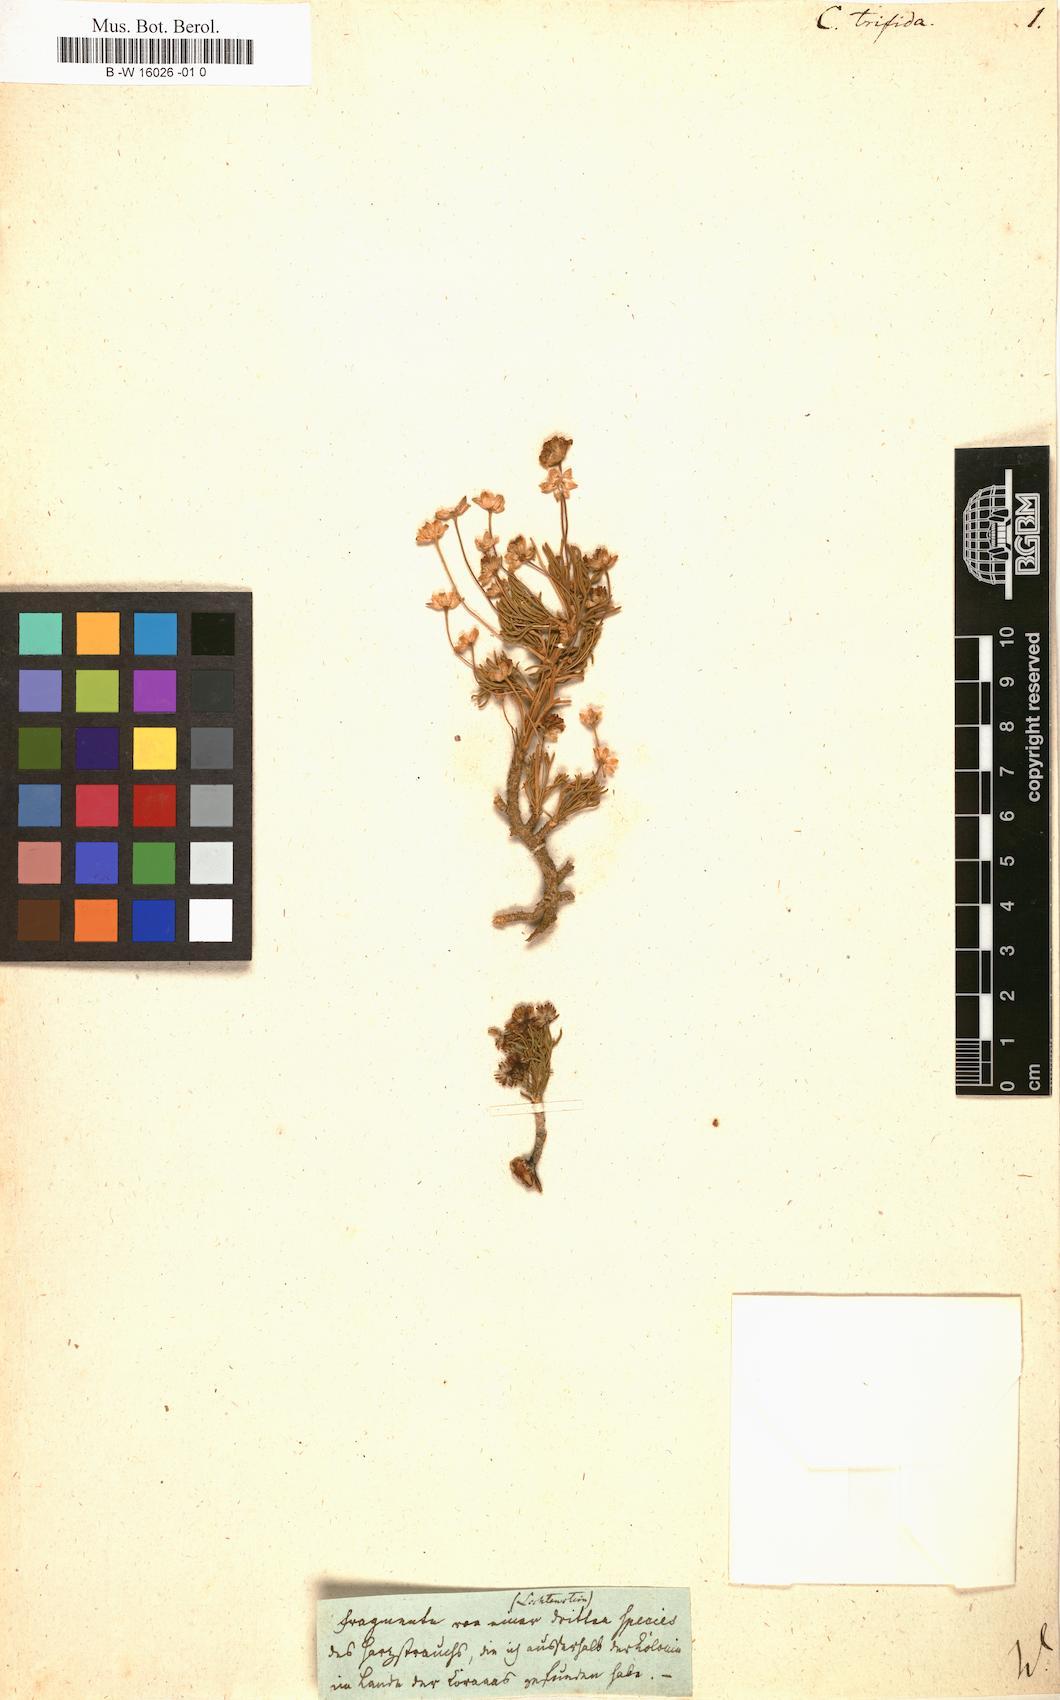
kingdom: Plantae
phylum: Tracheophyta
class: Magnoliopsida
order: Asterales
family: Asteraceae
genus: Cineraria
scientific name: Cineraria
